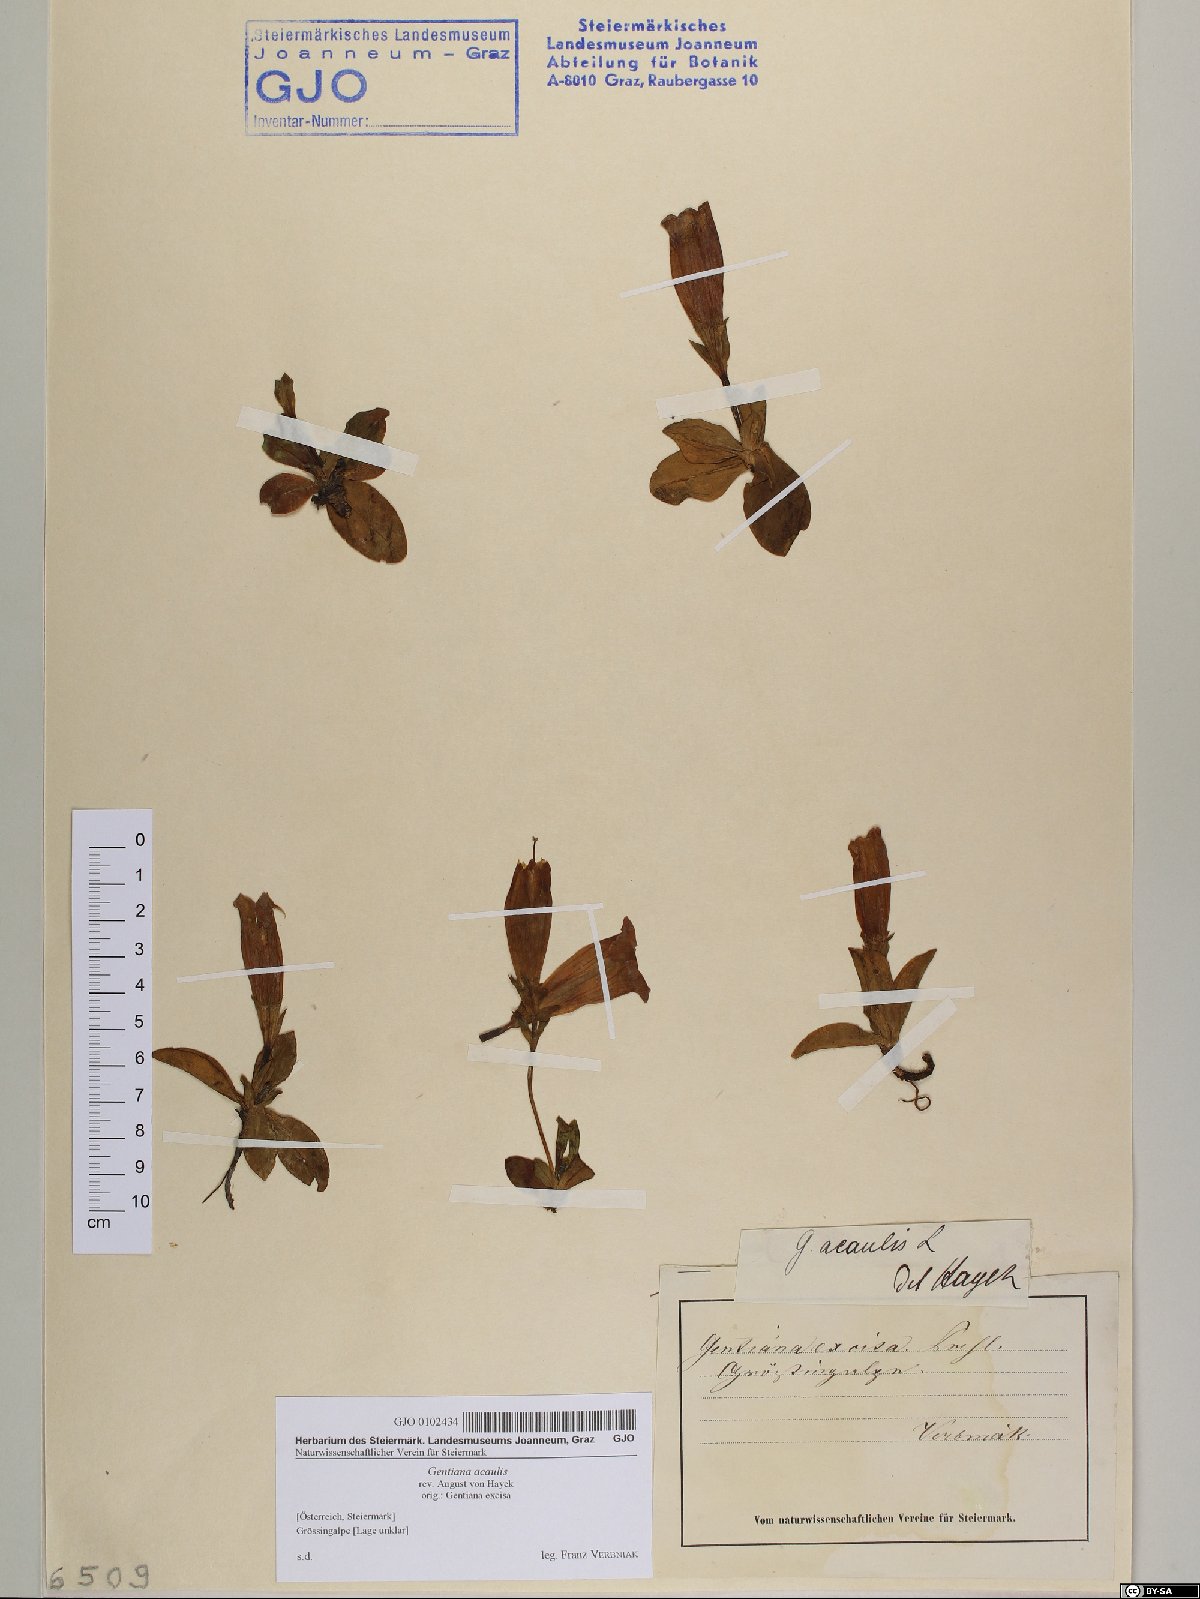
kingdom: Plantae
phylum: Tracheophyta
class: Magnoliopsida
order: Gentianales
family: Gentianaceae
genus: Gentiana
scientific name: Gentiana acaulis
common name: Trumpet gentian
